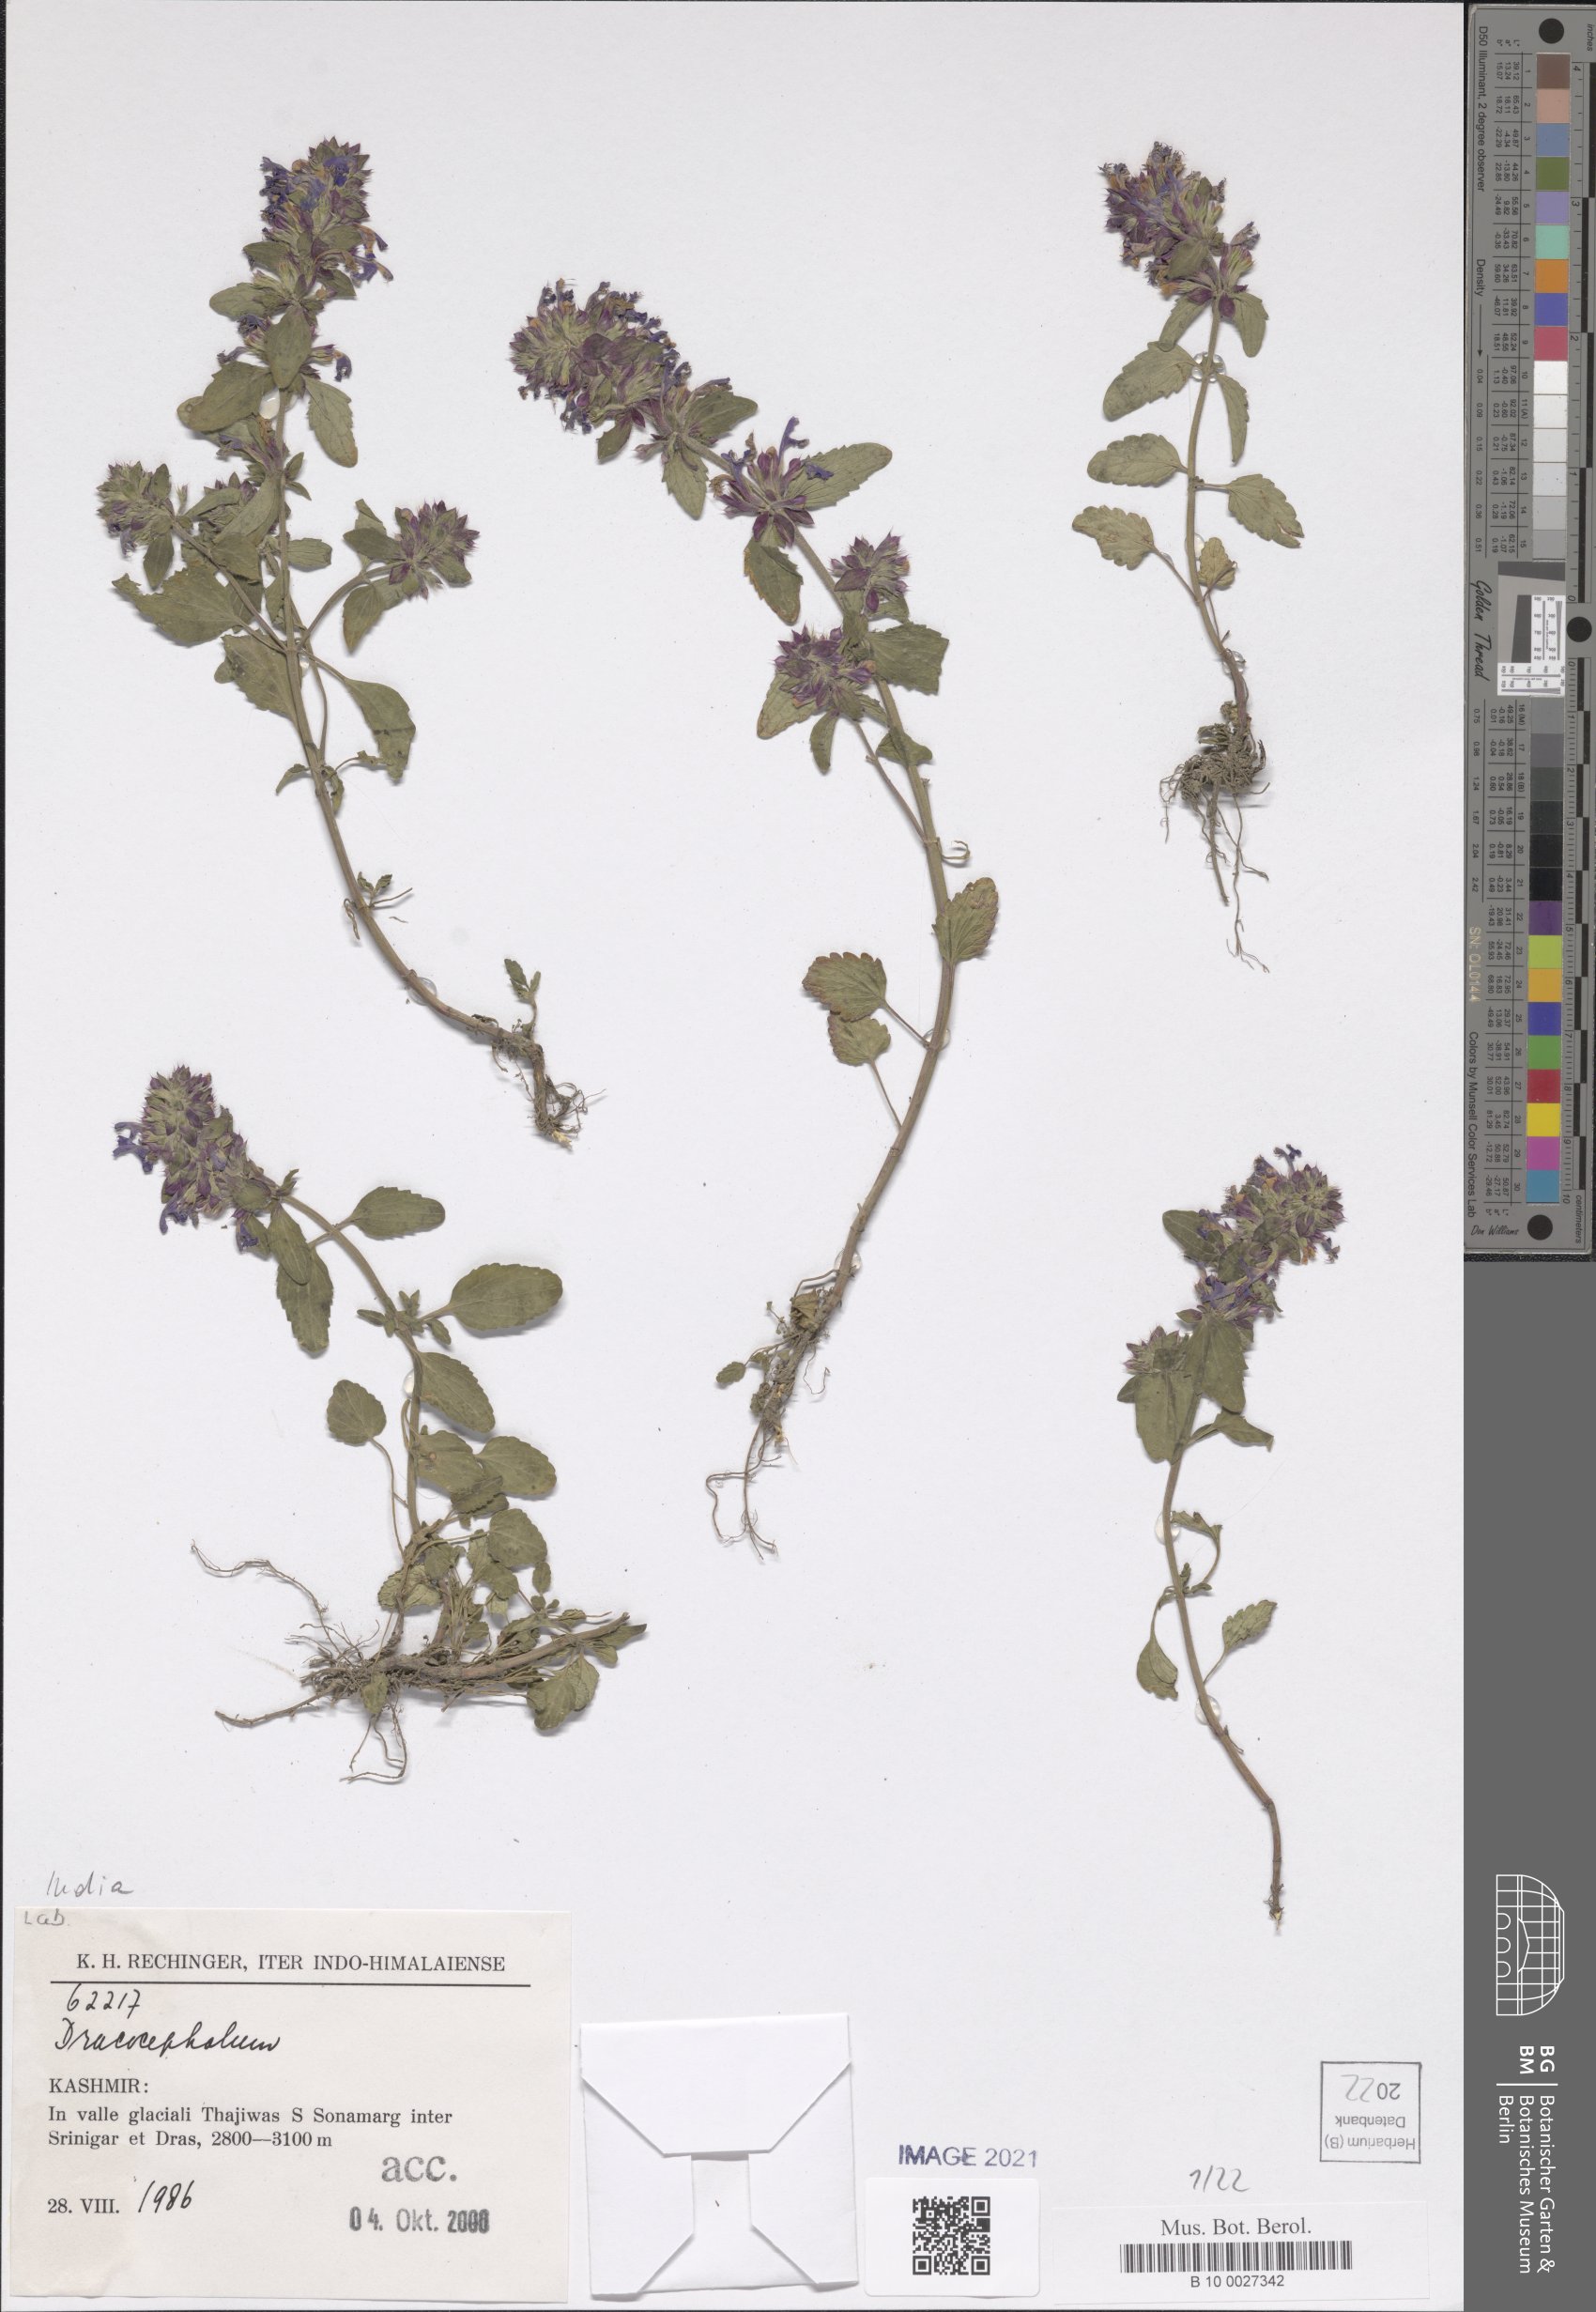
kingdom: Plantae
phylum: Tracheophyta
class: Magnoliopsida
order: Lamiales
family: Lamiaceae
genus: Dracocephalum
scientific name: Dracocephalum
